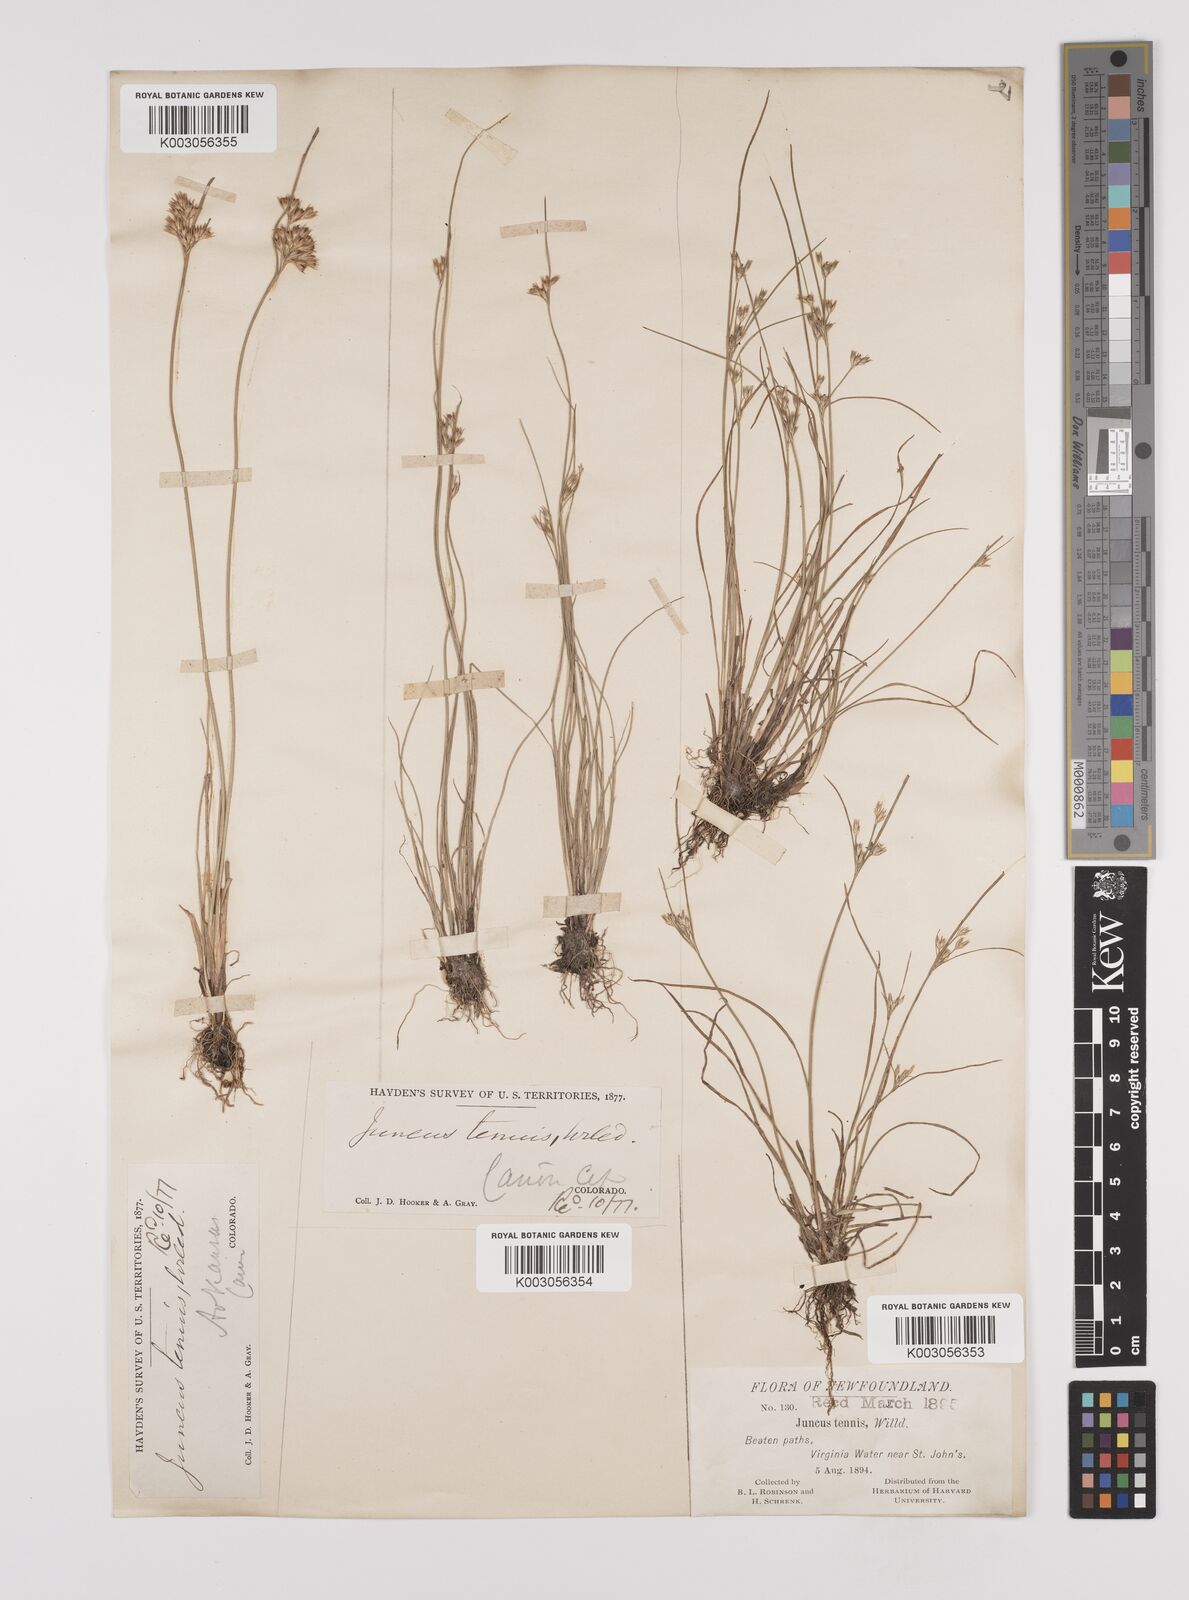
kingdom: Plantae
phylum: Tracheophyta
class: Liliopsida
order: Poales
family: Juncaceae
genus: Juncus
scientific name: Juncus tenuis
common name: Slender rush
